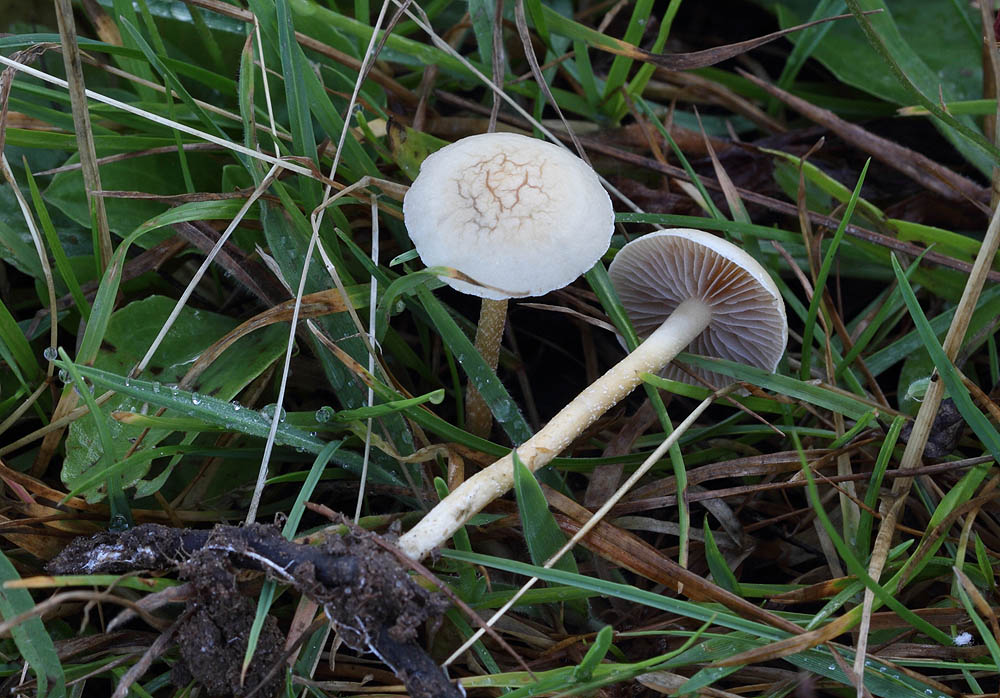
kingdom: Fungi
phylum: Basidiomycota
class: Agaricomycetes
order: Agaricales
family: Strophariaceae
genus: Agrocybe
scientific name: Agrocybe pediades
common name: almindelig agerhat
